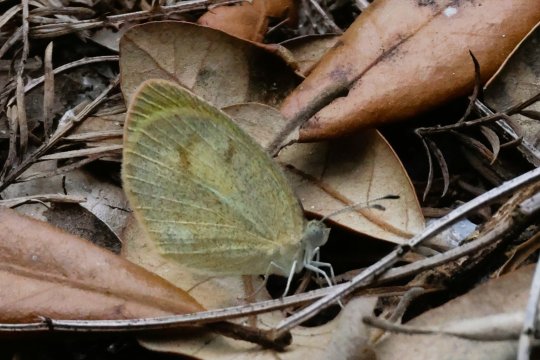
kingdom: Animalia
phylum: Arthropoda
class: Insecta
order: Lepidoptera
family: Pieridae
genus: Eurema
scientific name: Eurema daira
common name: Barred Yellow
